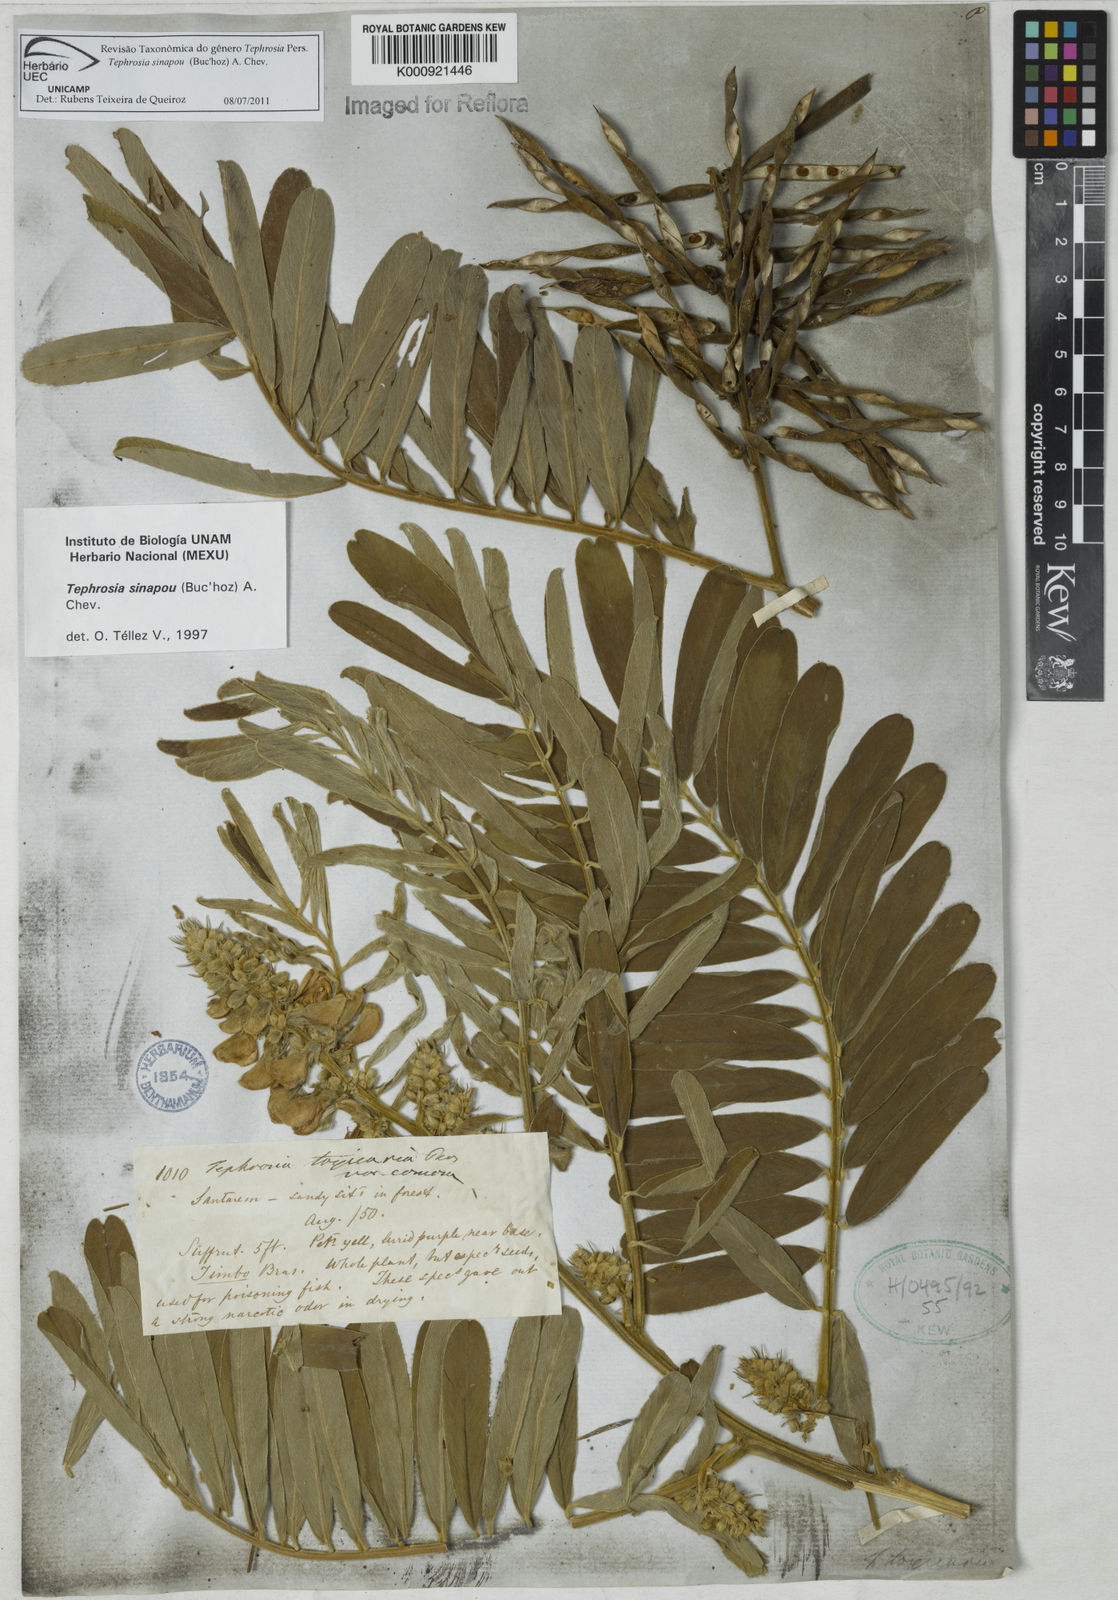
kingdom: Plantae
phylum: Tracheophyta
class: Magnoliopsida
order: Fabales
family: Fabaceae
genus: Tephrosia
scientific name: Tephrosia
